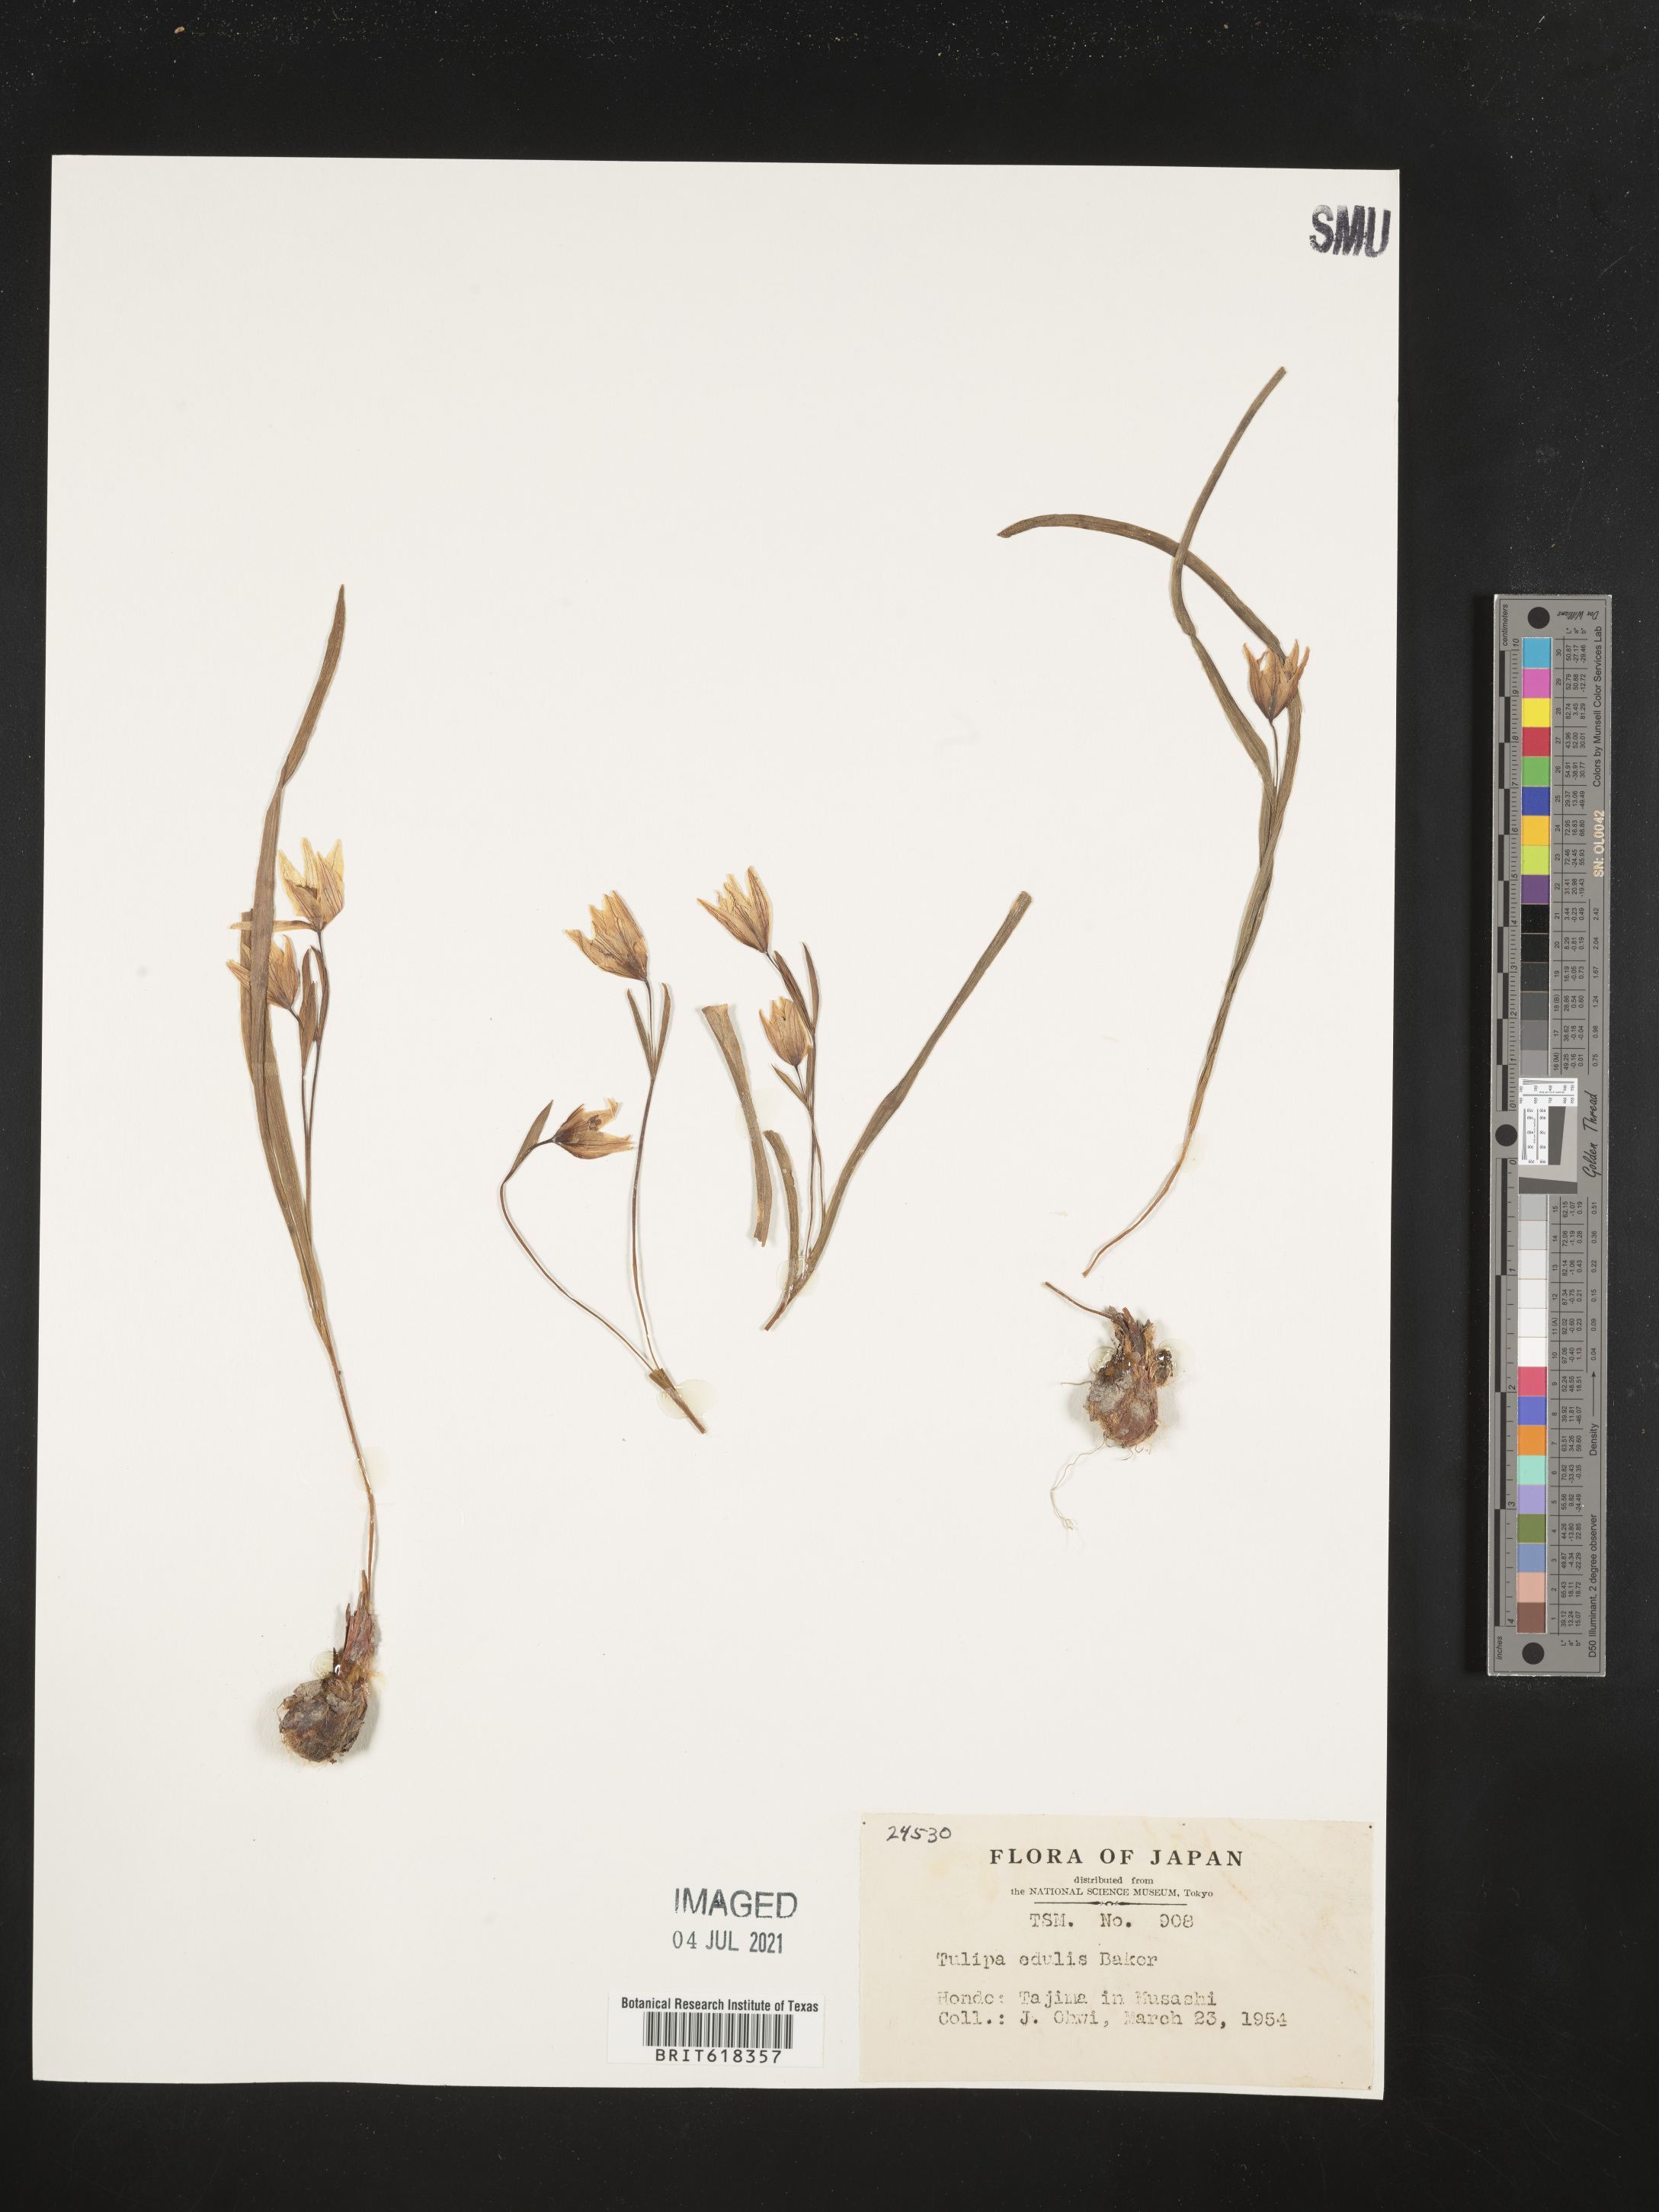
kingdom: Plantae
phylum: Tracheophyta
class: Liliopsida
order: Liliales
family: Liliaceae
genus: Amana
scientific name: Amana edulis
